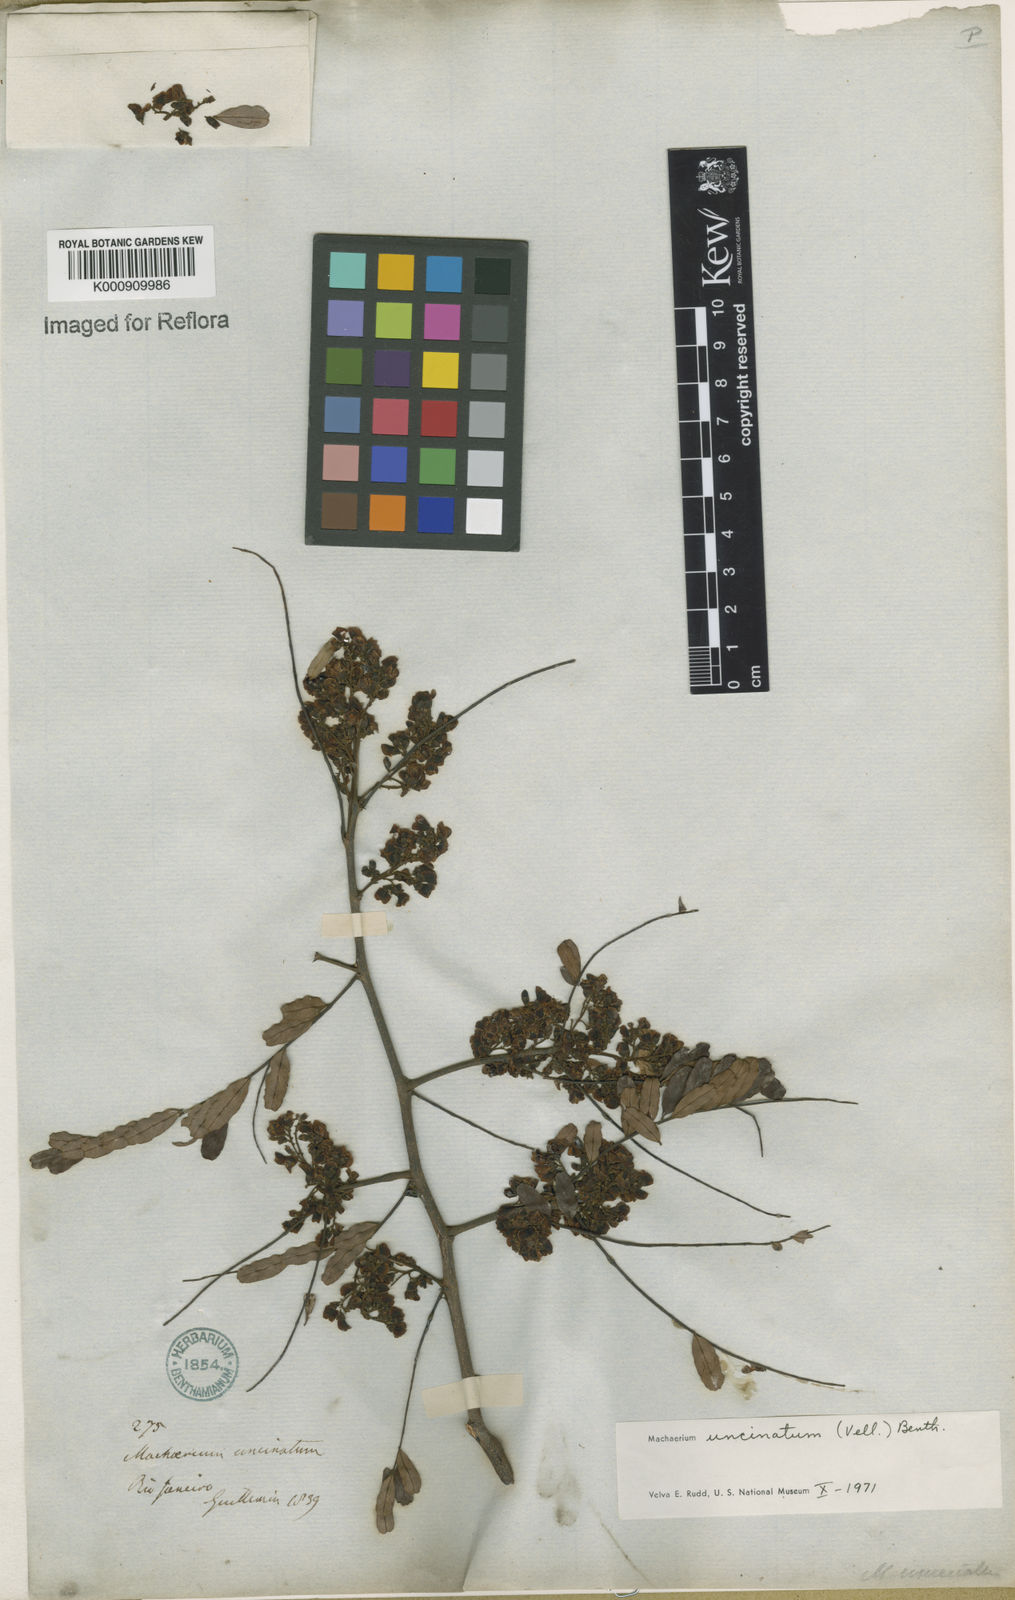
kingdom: Plantae
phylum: Tracheophyta
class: Magnoliopsida
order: Fabales
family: Fabaceae
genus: Machaerium
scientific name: Machaerium uncinatum
